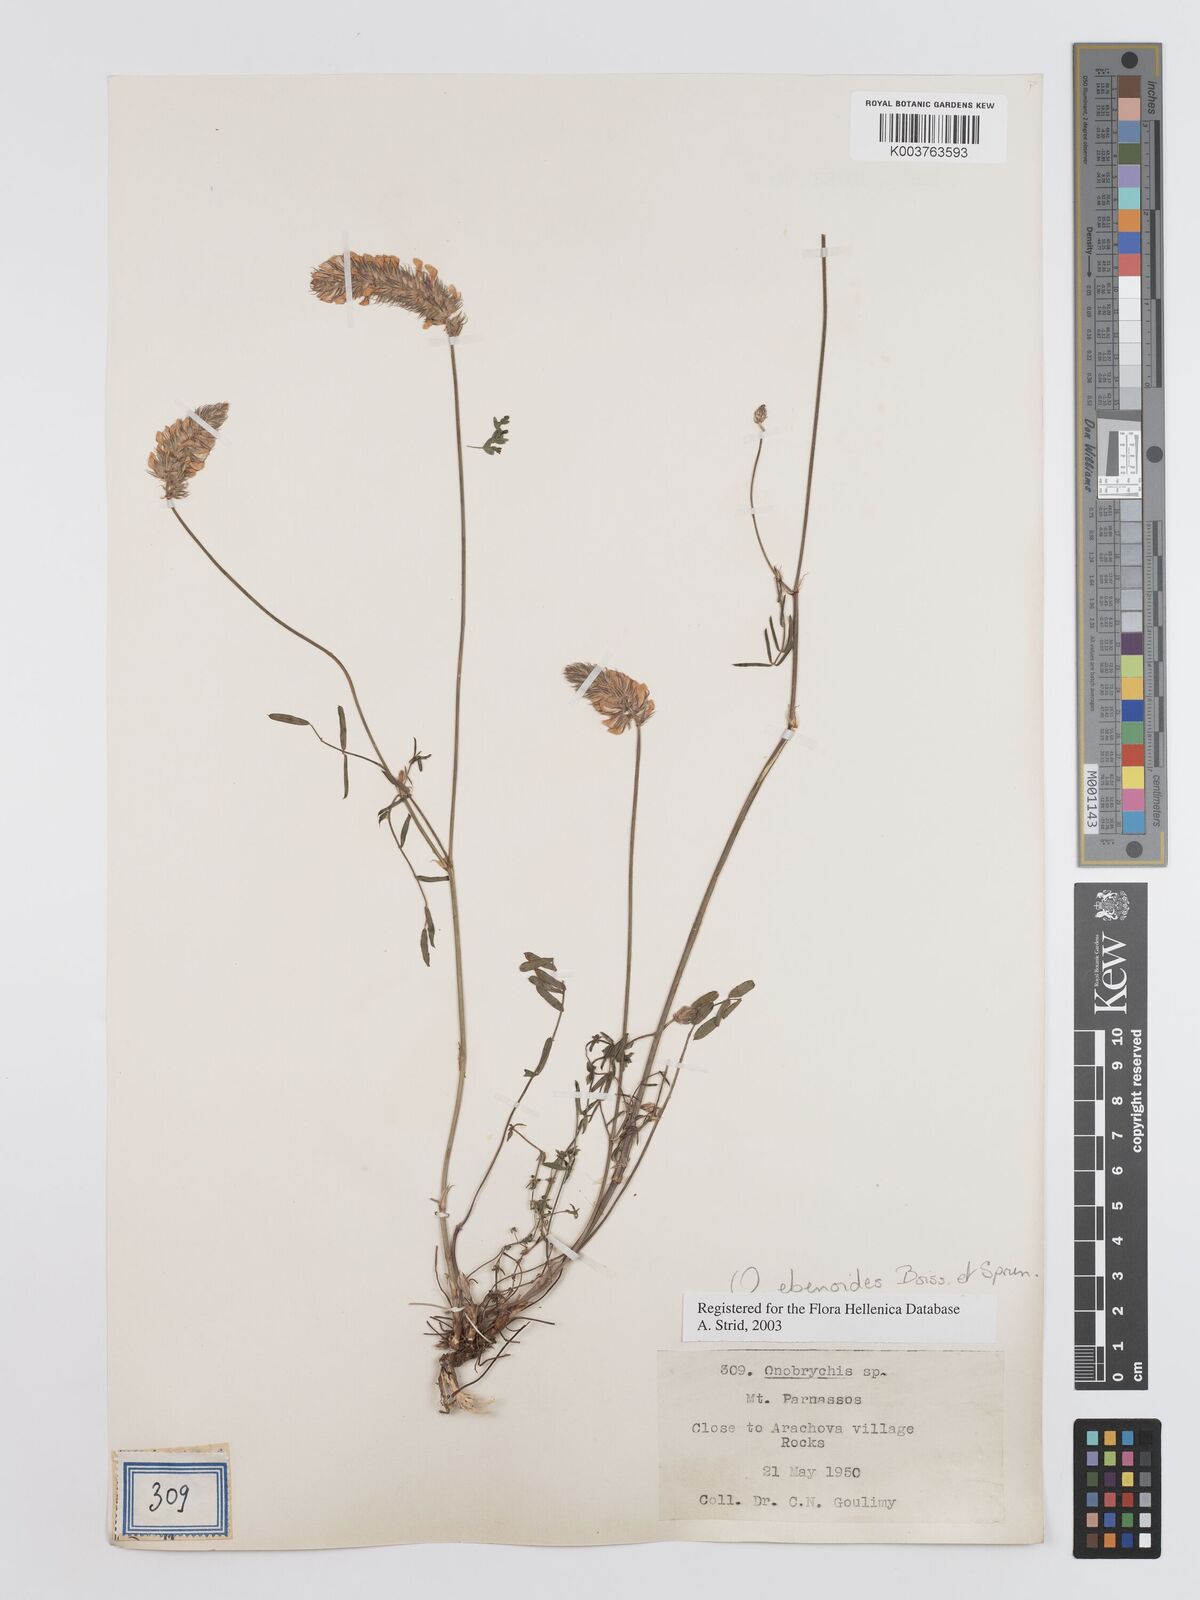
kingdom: Plantae
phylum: Tracheophyta
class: Magnoliopsida
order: Fabales
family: Fabaceae
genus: Onobrychis
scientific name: Onobrychis ebenoides
